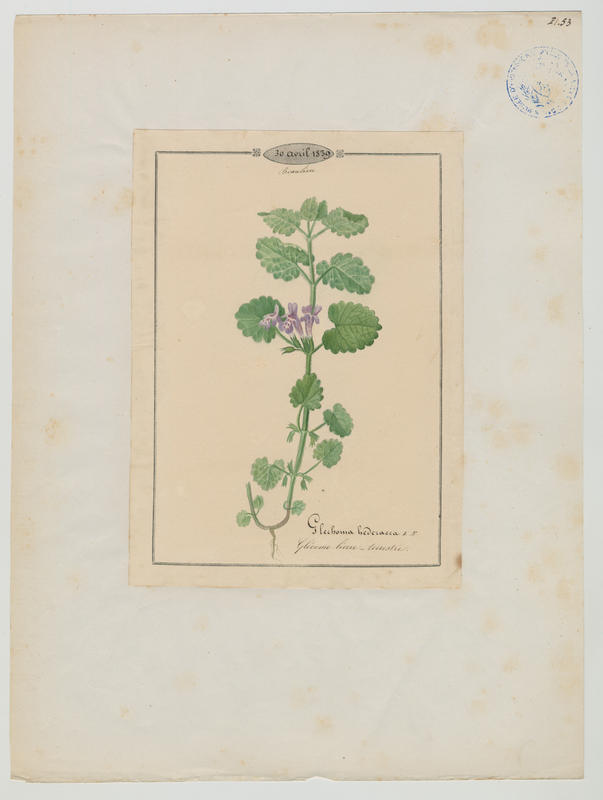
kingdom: Plantae
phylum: Tracheophyta
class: Magnoliopsida
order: Lamiales
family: Lamiaceae
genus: Glechoma
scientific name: Glechoma hederacea
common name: Ground ivy
